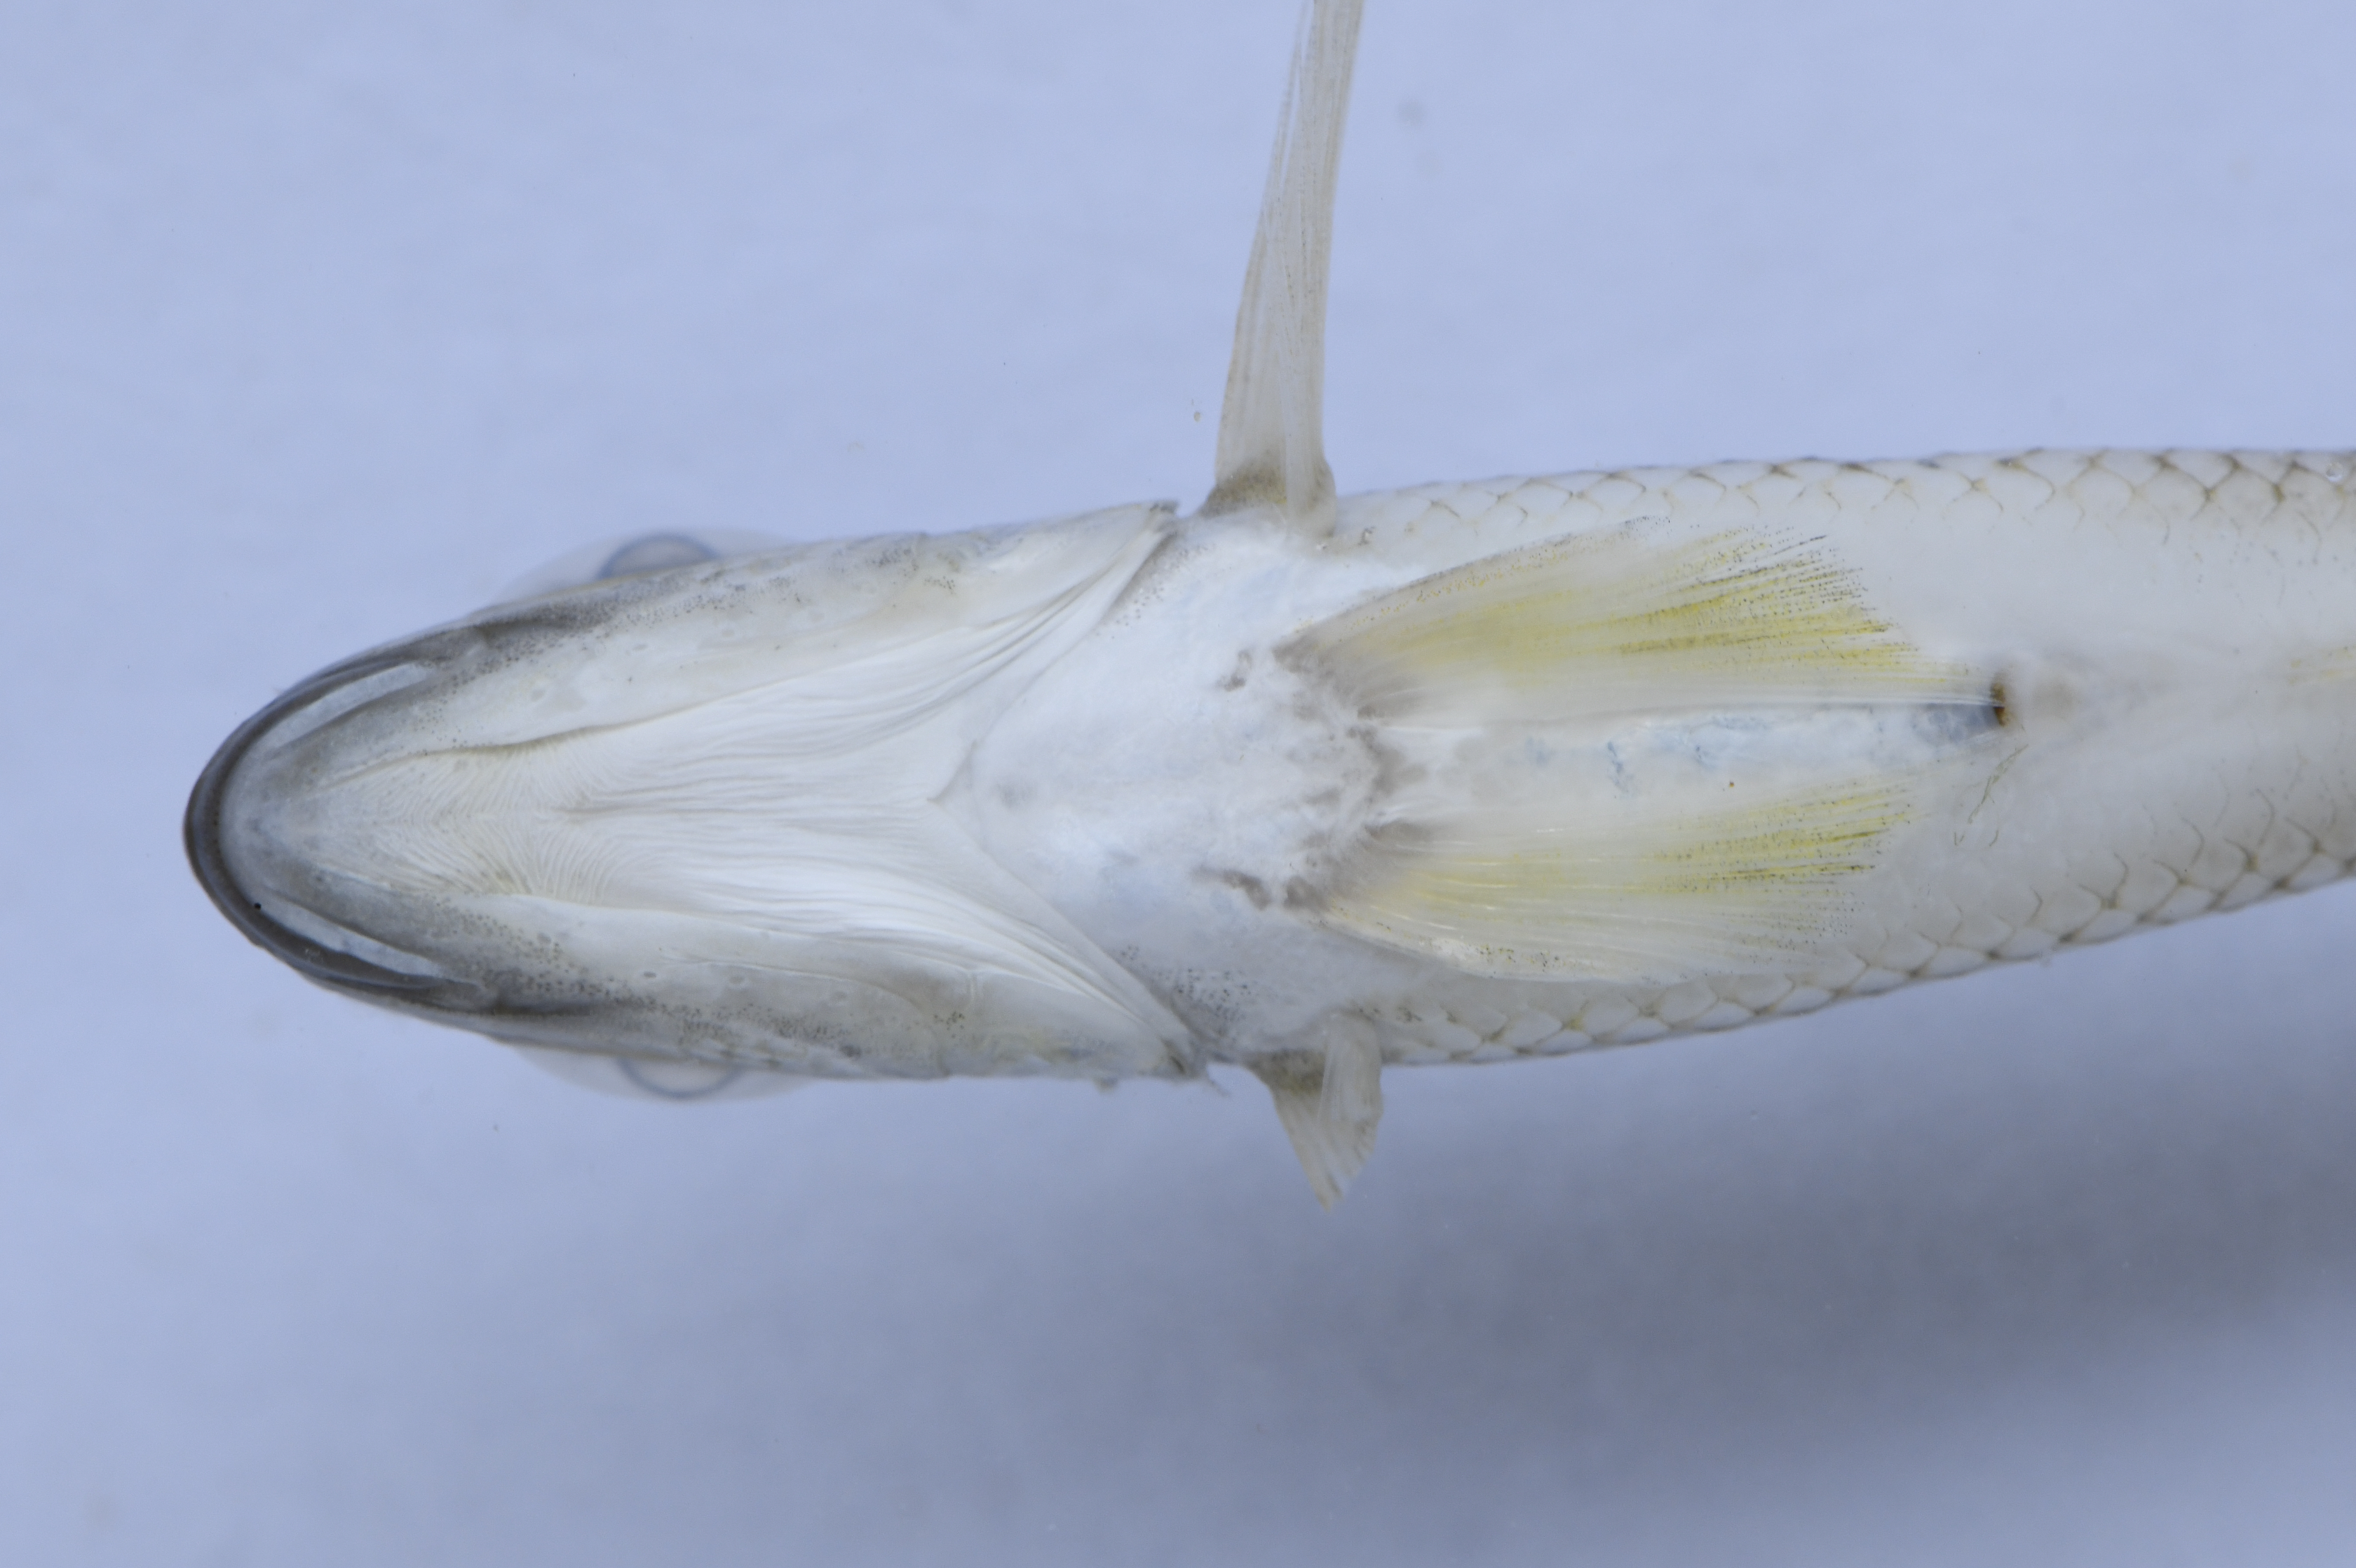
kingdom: Animalia
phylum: Chordata
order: Perciformes
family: Cichlidae
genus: Xenotilapia
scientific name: Xenotilapia sima
